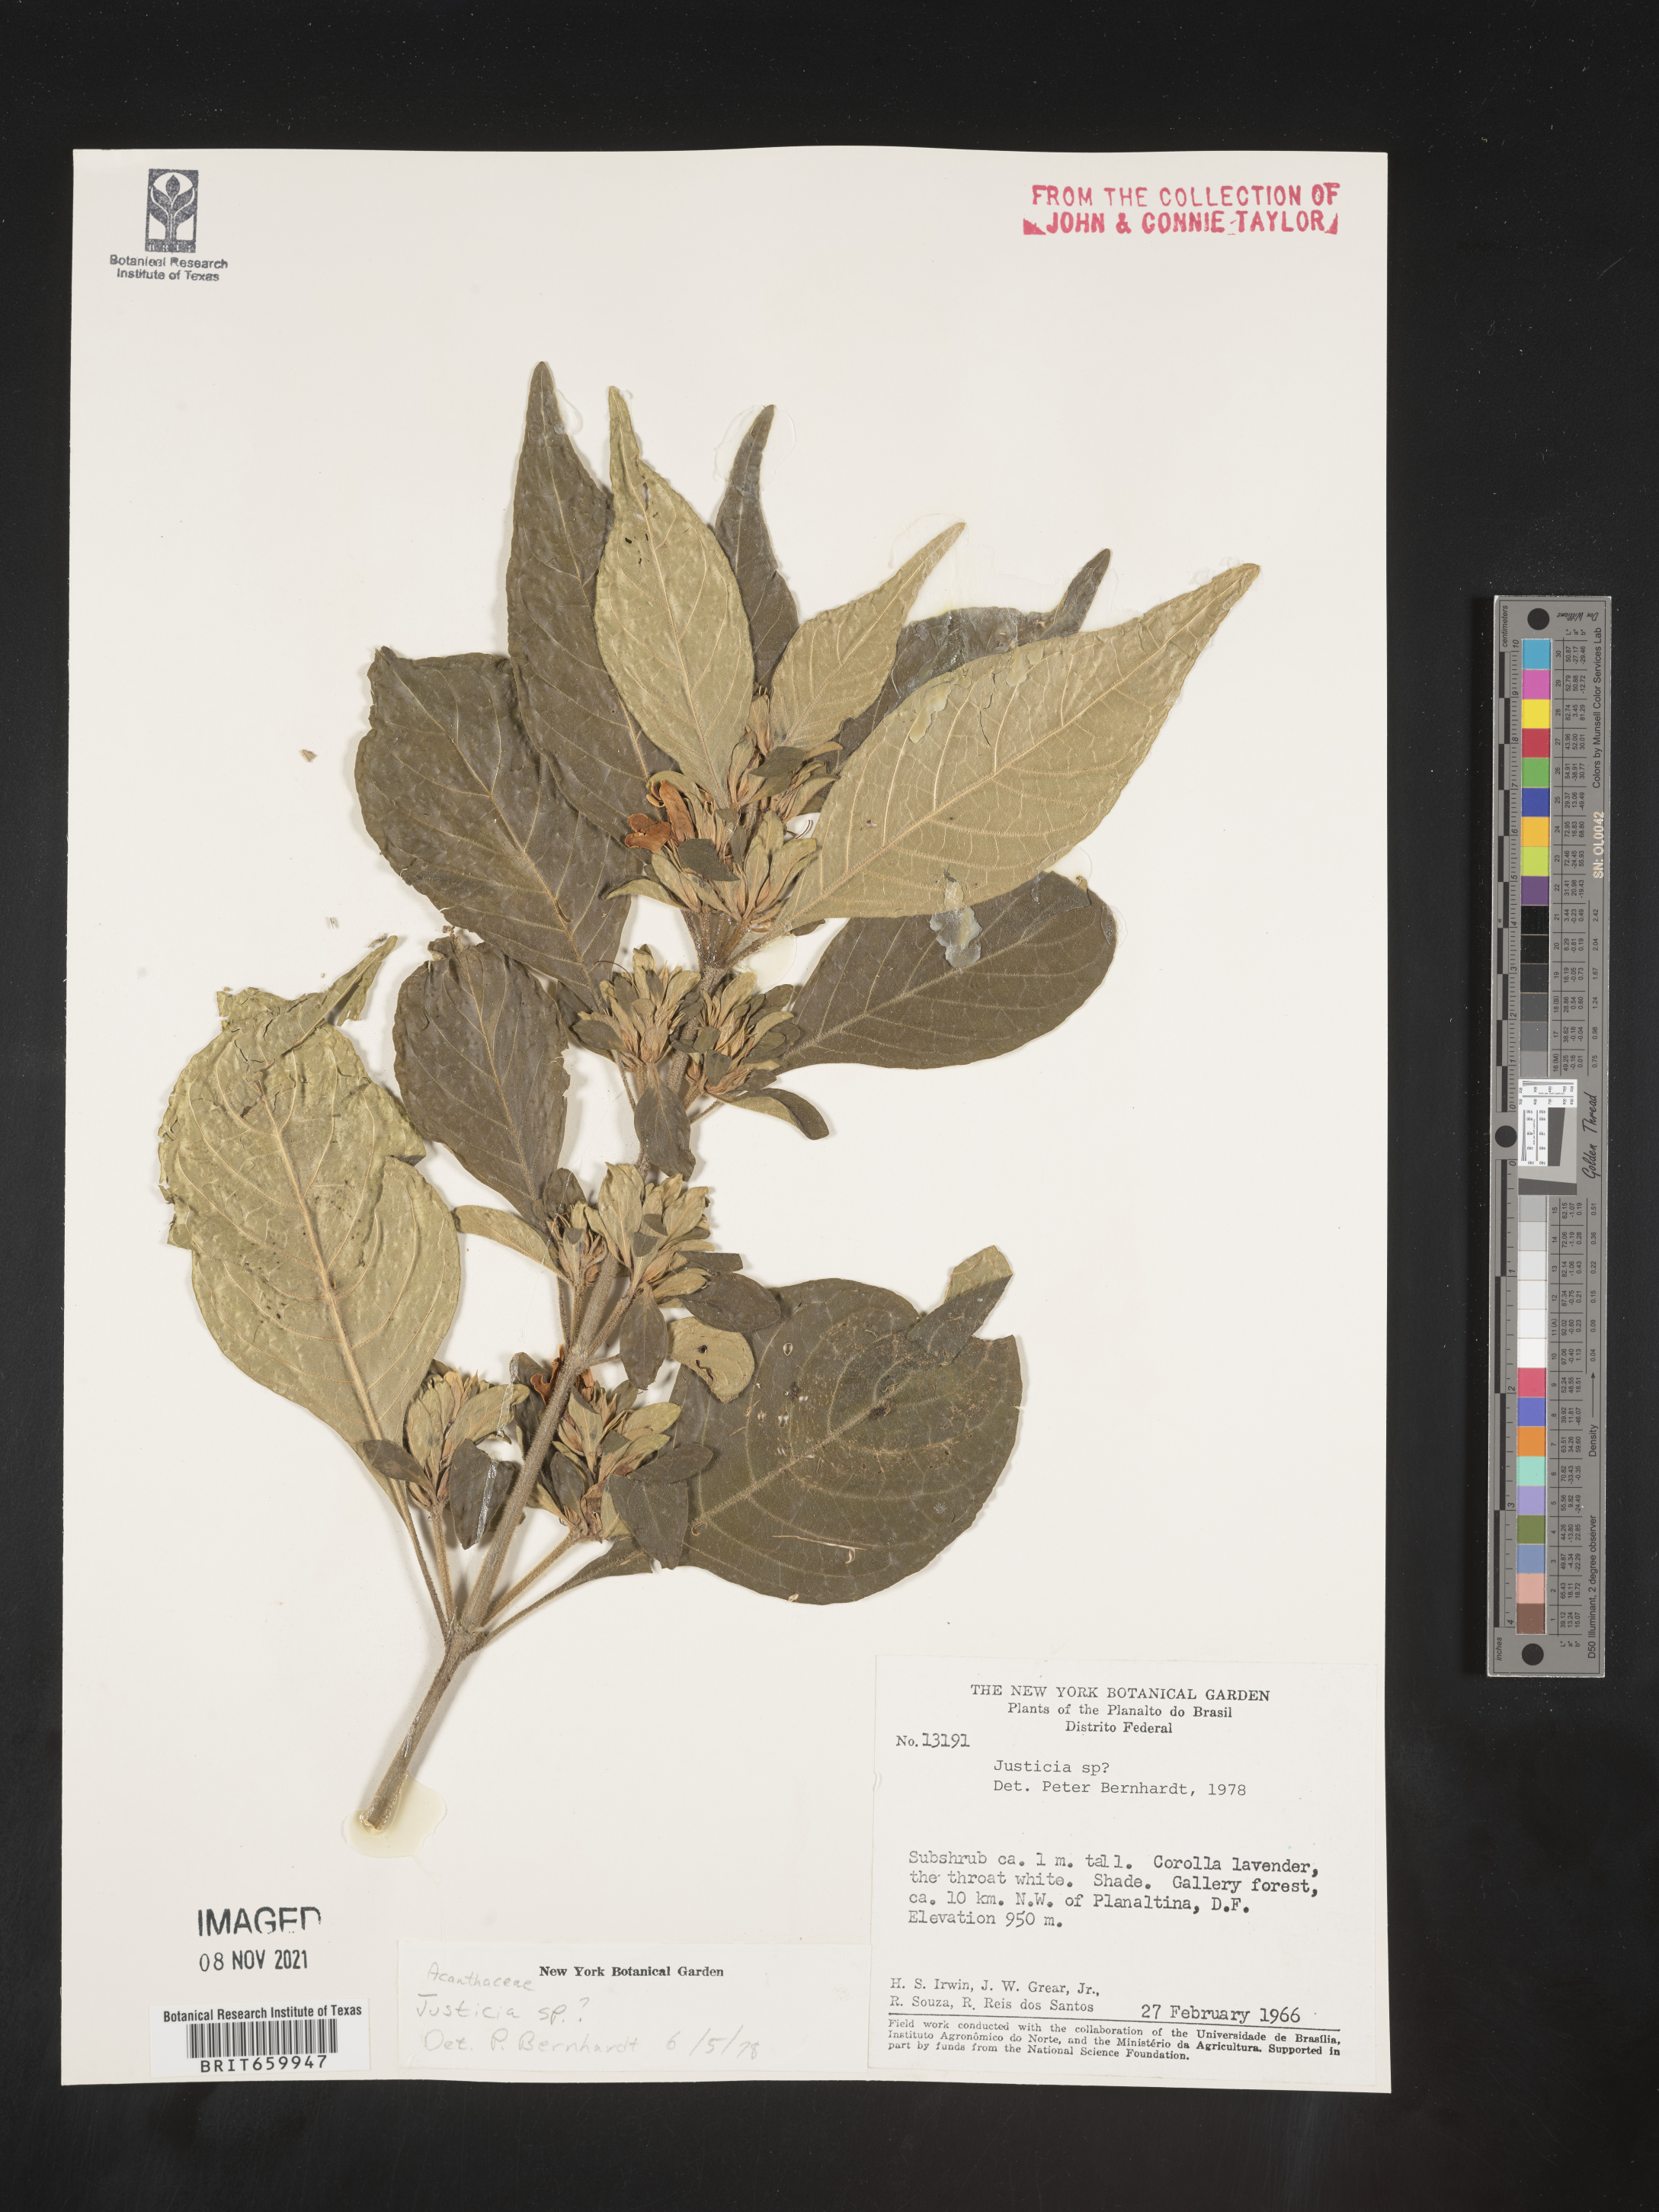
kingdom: Plantae
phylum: Tracheophyta
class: Magnoliopsida
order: Lamiales
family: Acanthaceae
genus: Justicia
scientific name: Justicia
